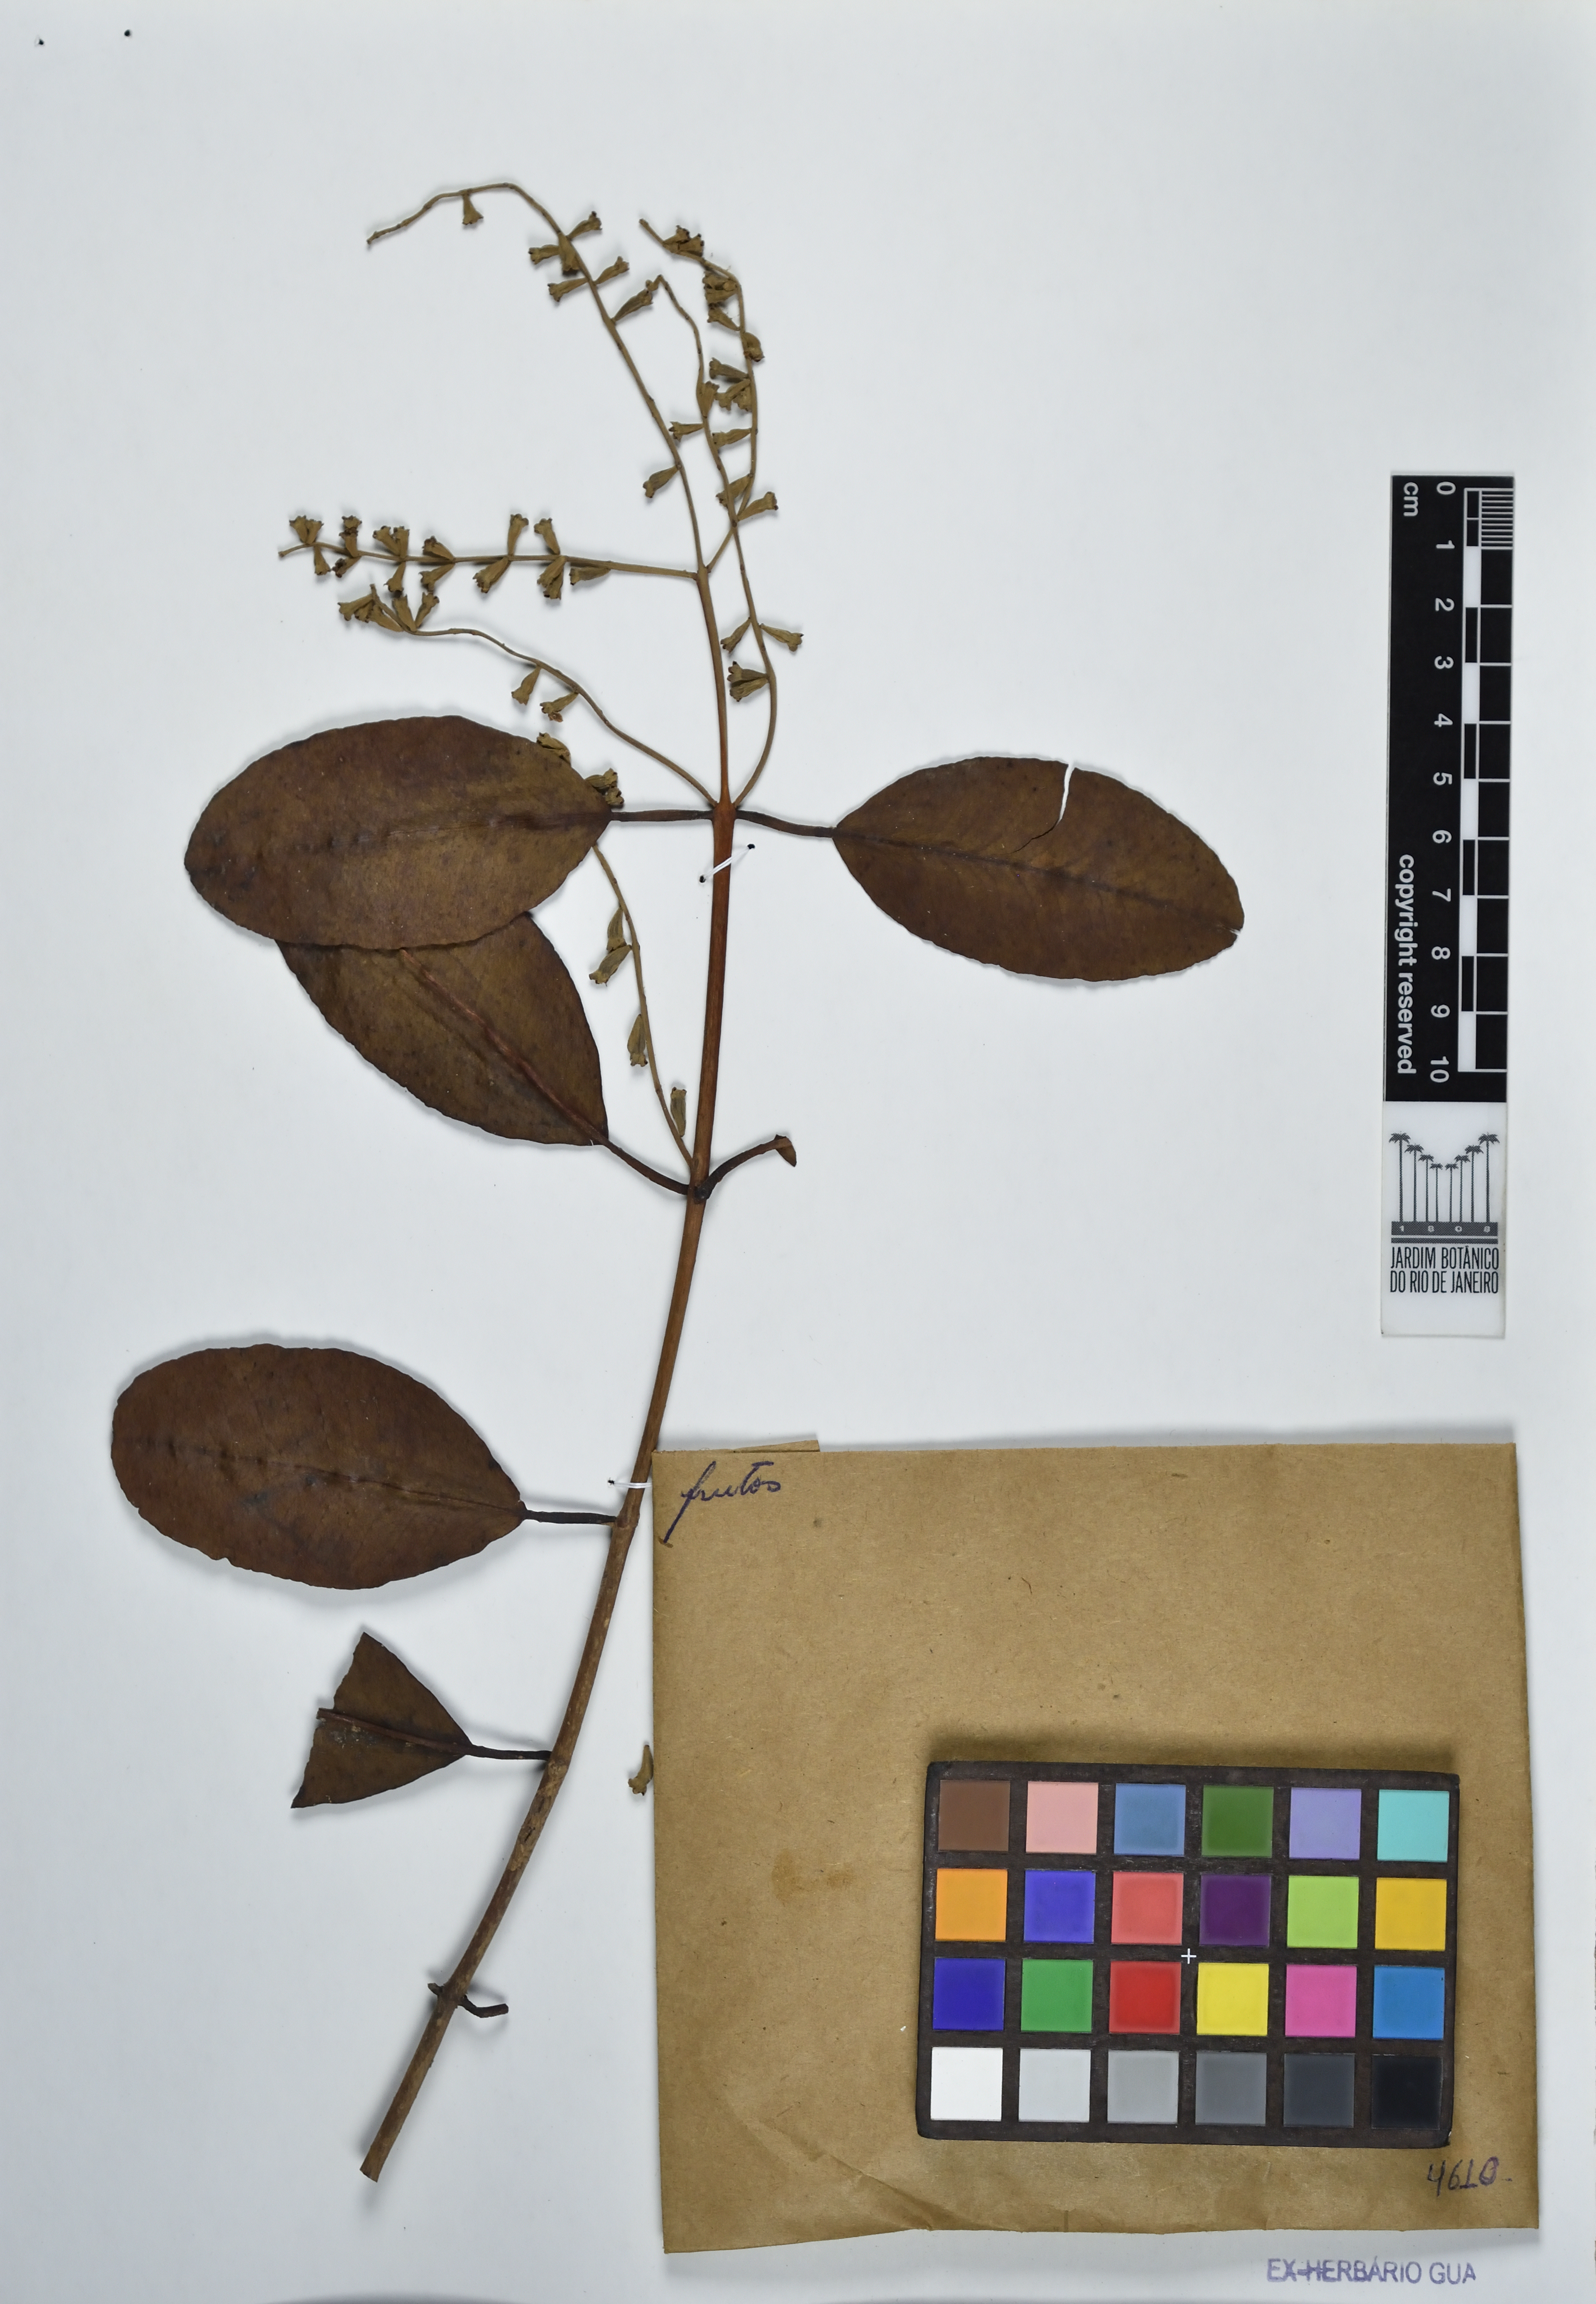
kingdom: Plantae
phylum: Tracheophyta
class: Magnoliopsida
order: Myrtales
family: Combretaceae
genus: Laguncularia
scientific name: Laguncularia racemosa
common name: White mangrove
